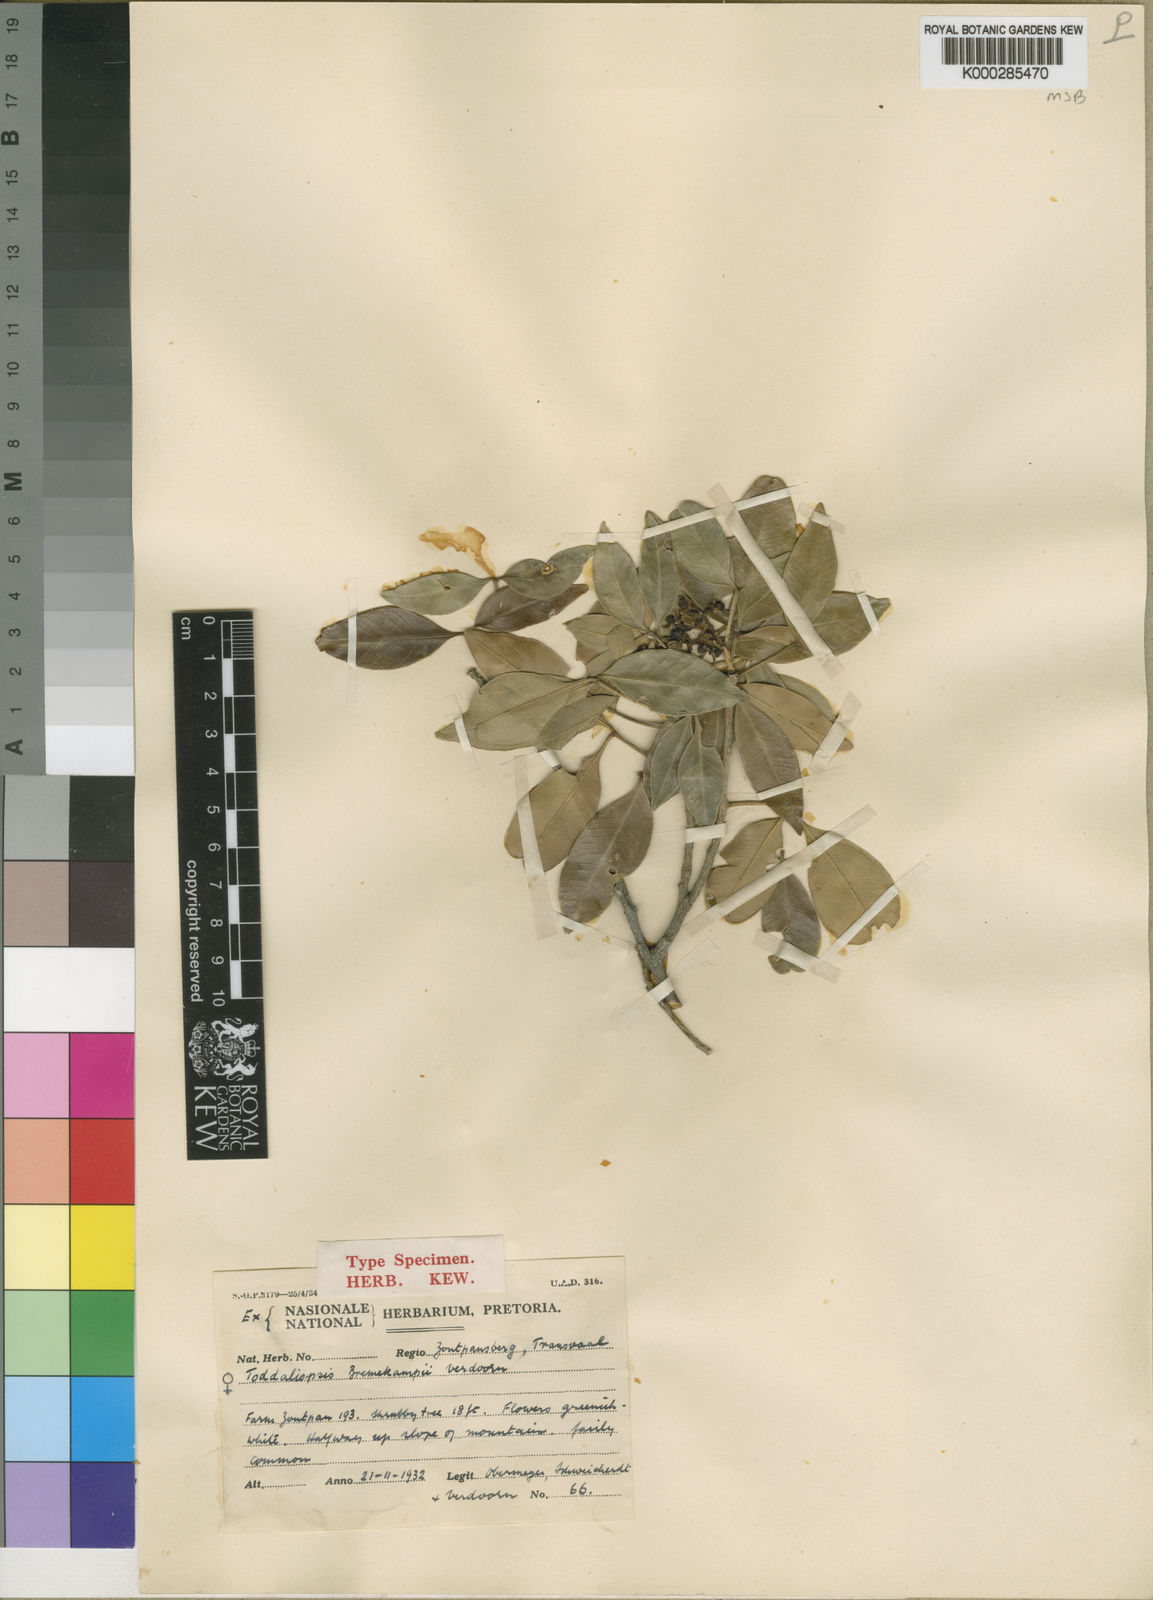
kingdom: Plantae
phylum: Tracheophyta
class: Magnoliopsida
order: Sapindales
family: Rutaceae
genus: Vepris
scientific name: Vepris bremekampii
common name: Wild mandarin
